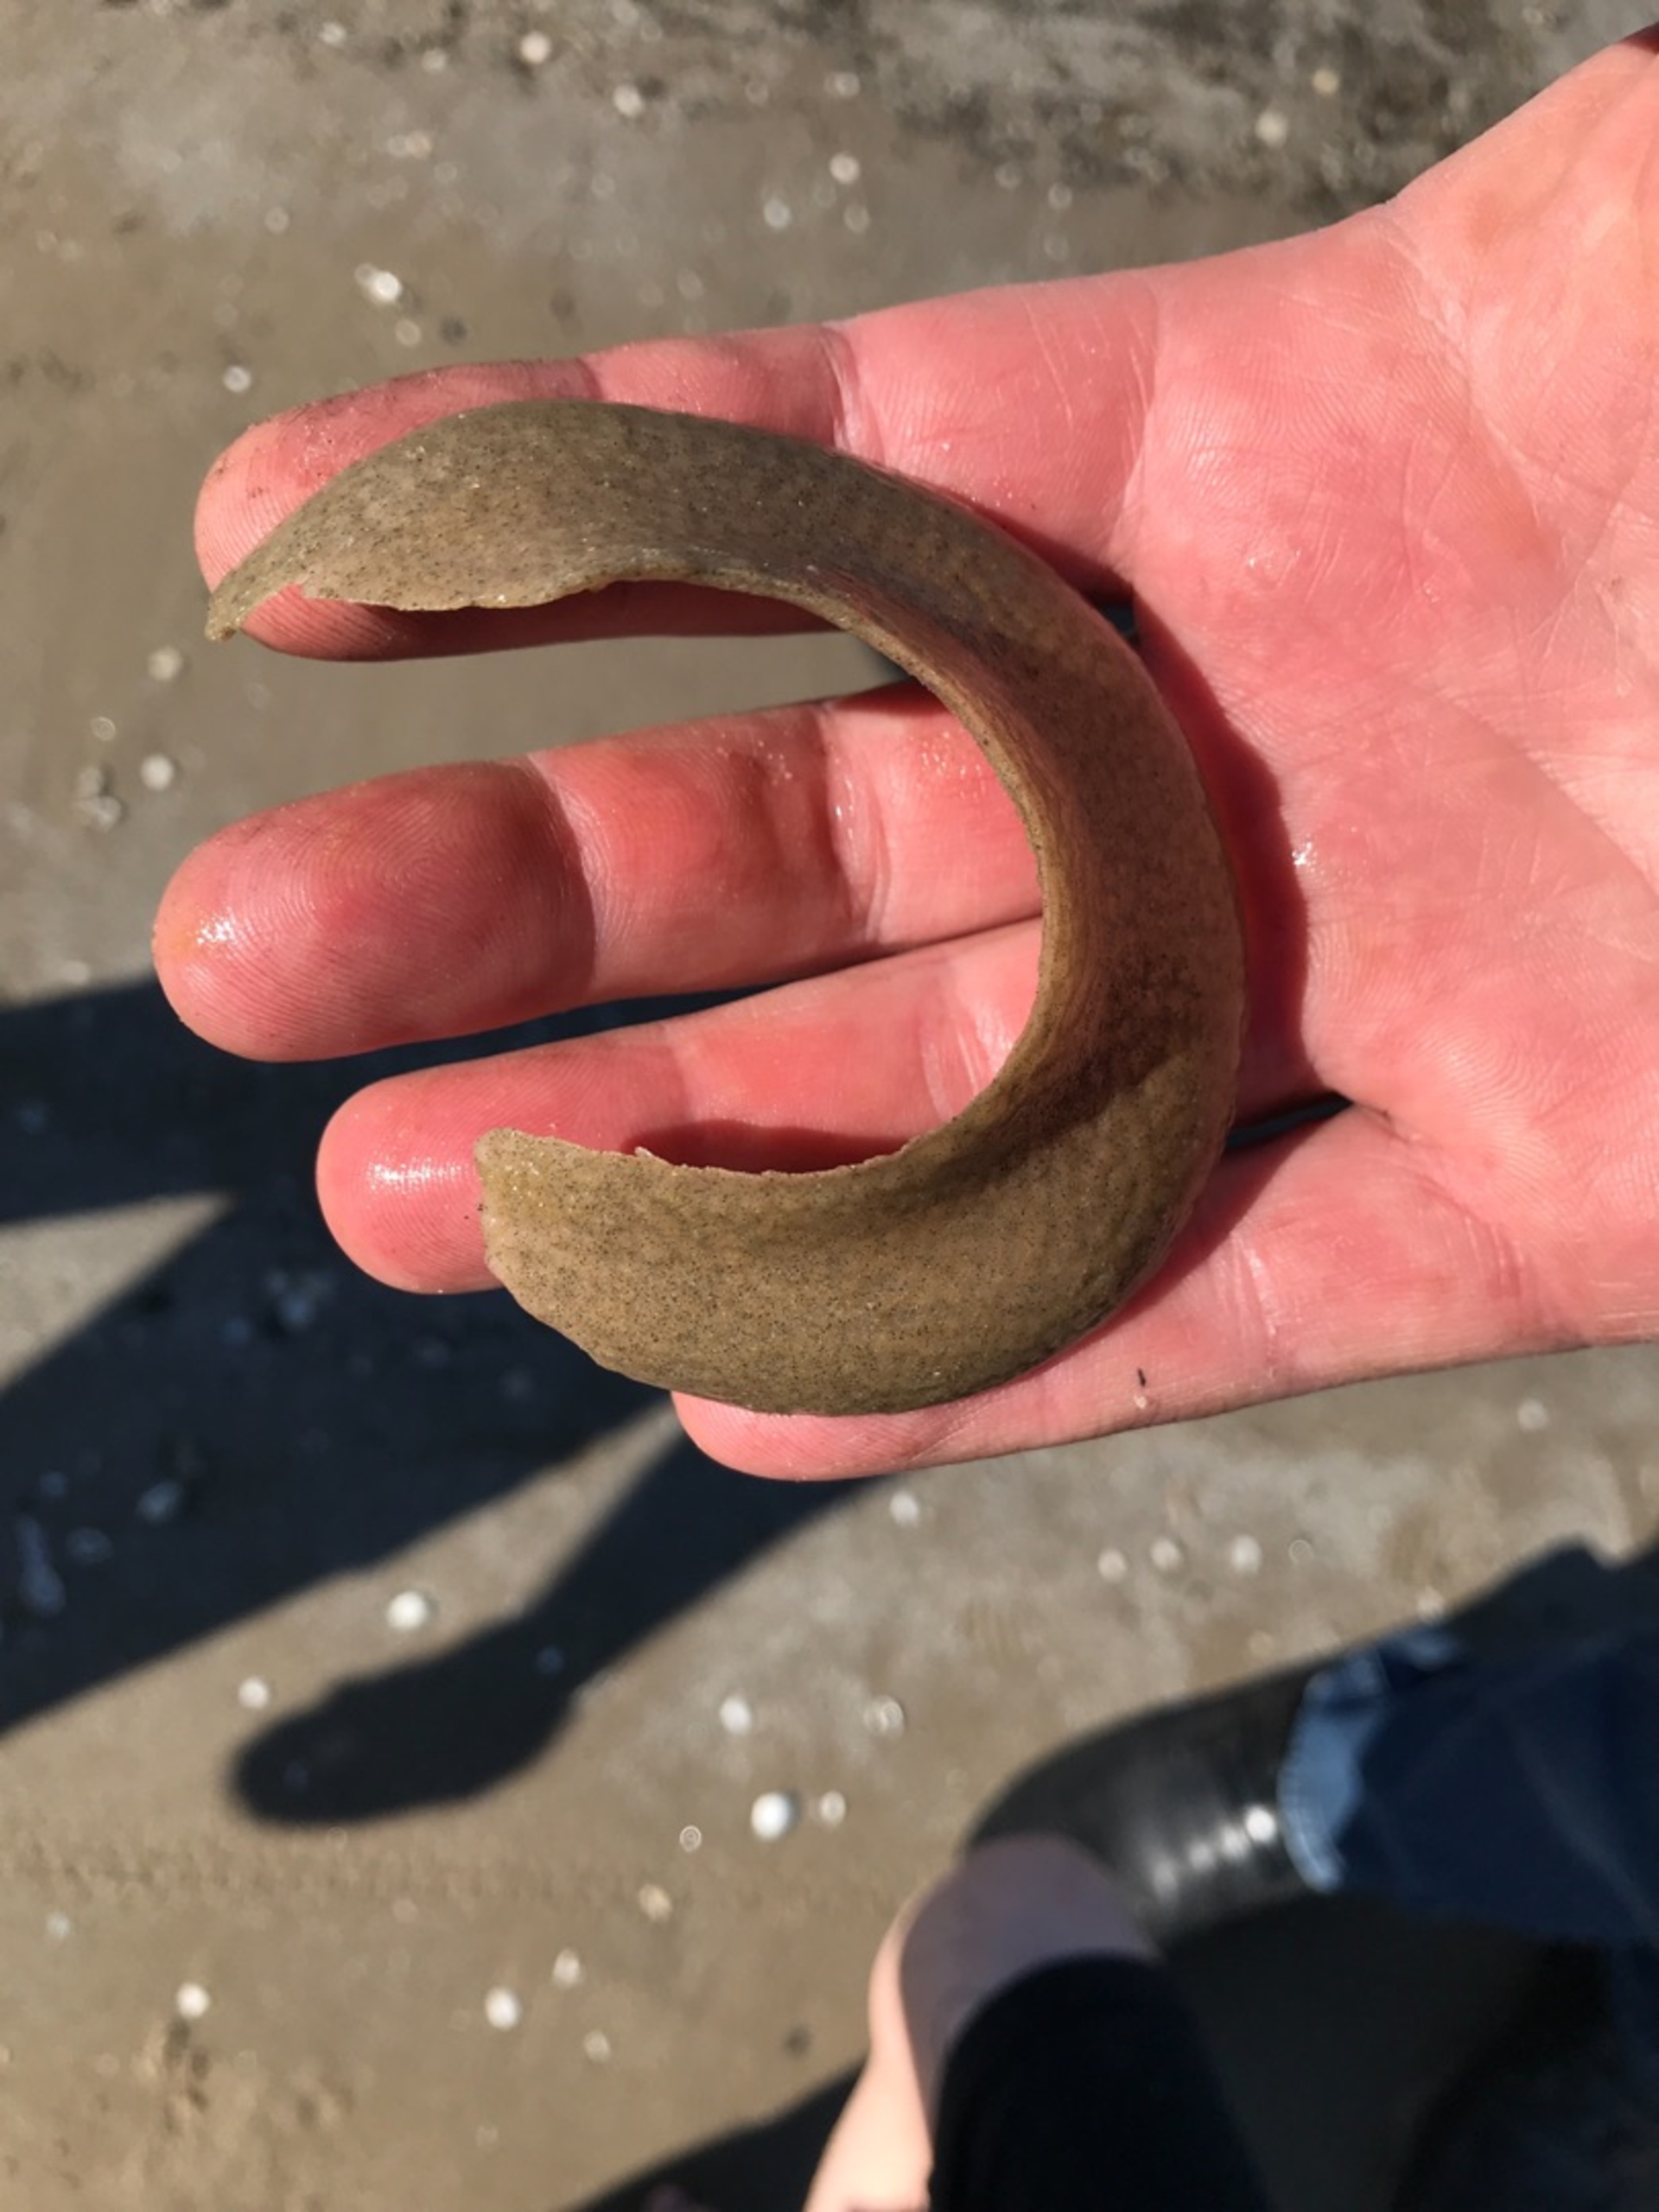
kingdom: Animalia
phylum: Mollusca
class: Gastropoda
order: Littorinimorpha
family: Naticidae
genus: Euspira
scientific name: Euspira catena
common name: Stor boresnegl
